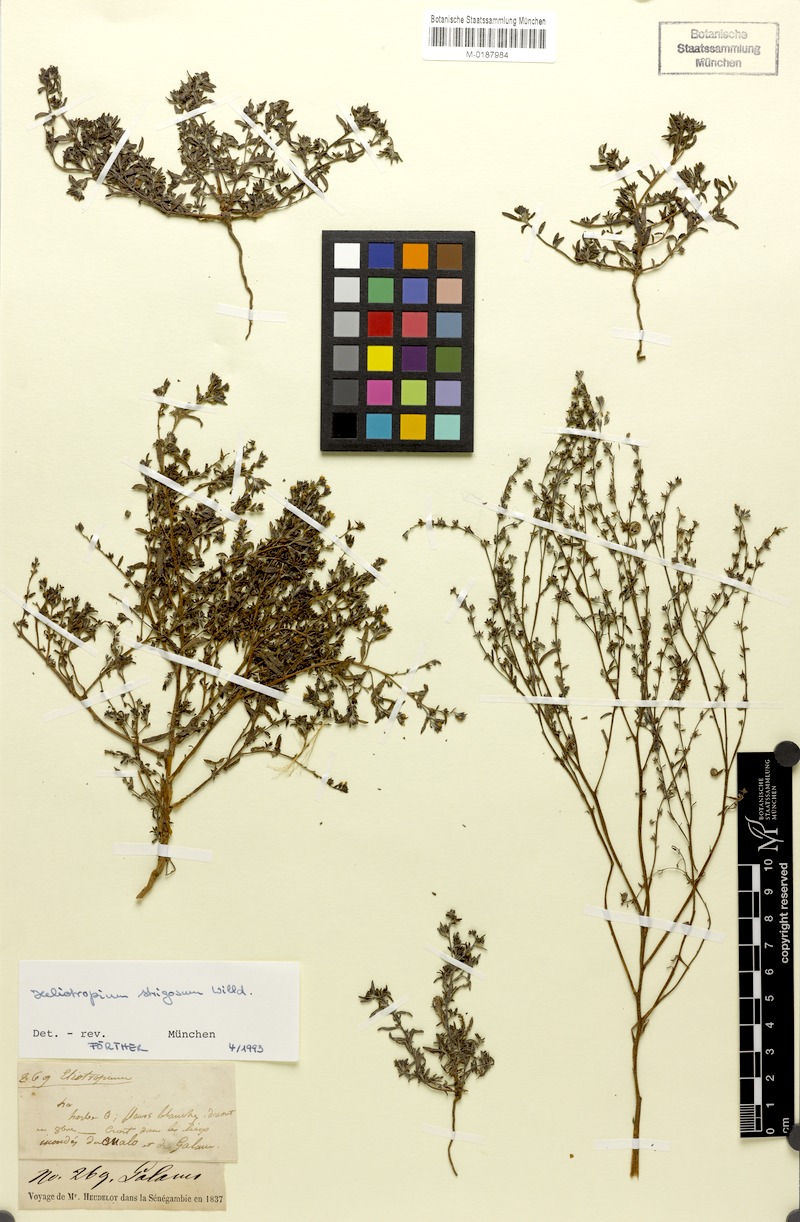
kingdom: Plantae
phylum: Tracheophyta
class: Magnoliopsida
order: Boraginales
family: Heliotropiaceae
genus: Euploca
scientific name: Euploca strigosa
